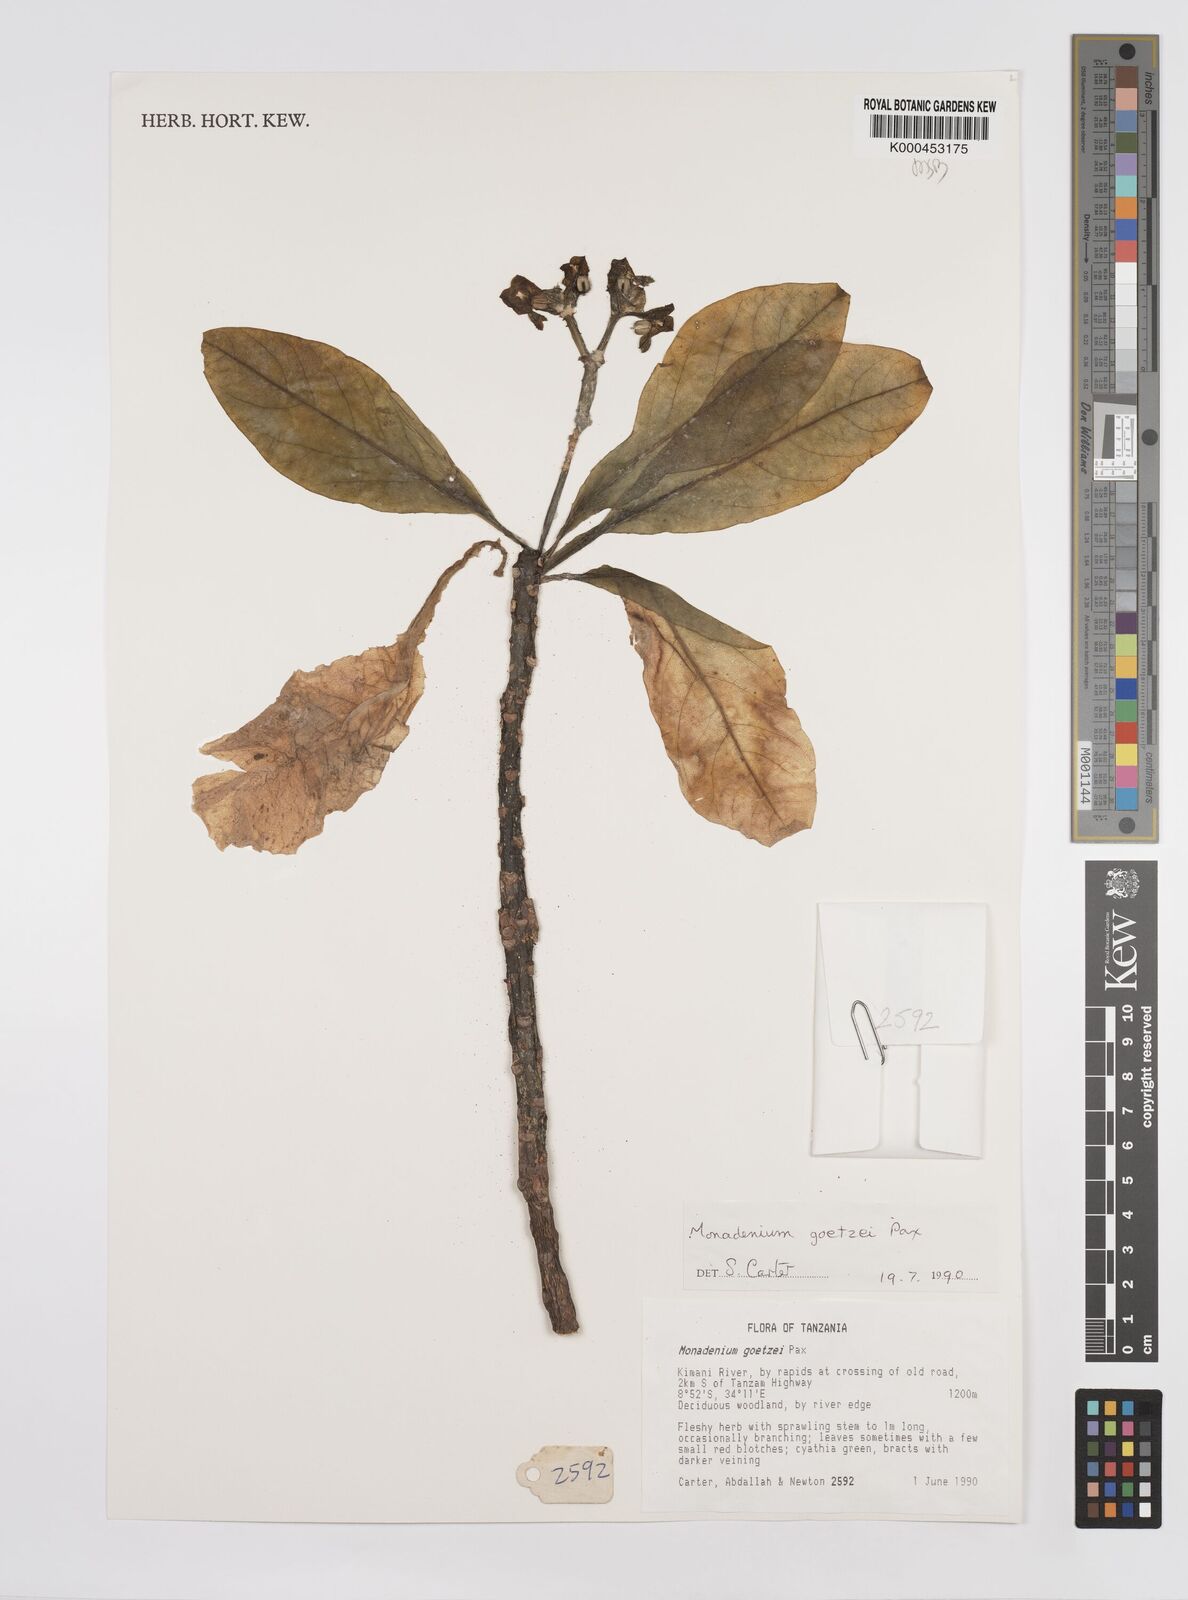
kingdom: Plantae
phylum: Tracheophyta
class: Magnoliopsida
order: Malpighiales
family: Euphorbiaceae
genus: Euphorbia
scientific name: Euphorbia neogoetzei
